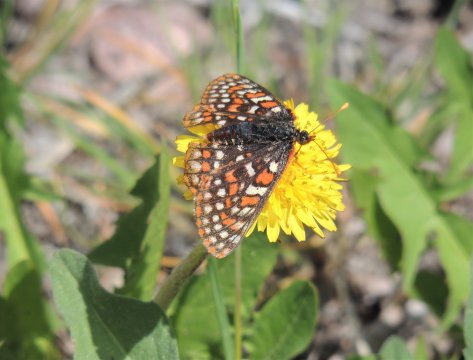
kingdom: Animalia
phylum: Arthropoda
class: Insecta
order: Lepidoptera
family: Nymphalidae
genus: Occidryas
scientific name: Occidryas editha
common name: Edith's Checkerspot
